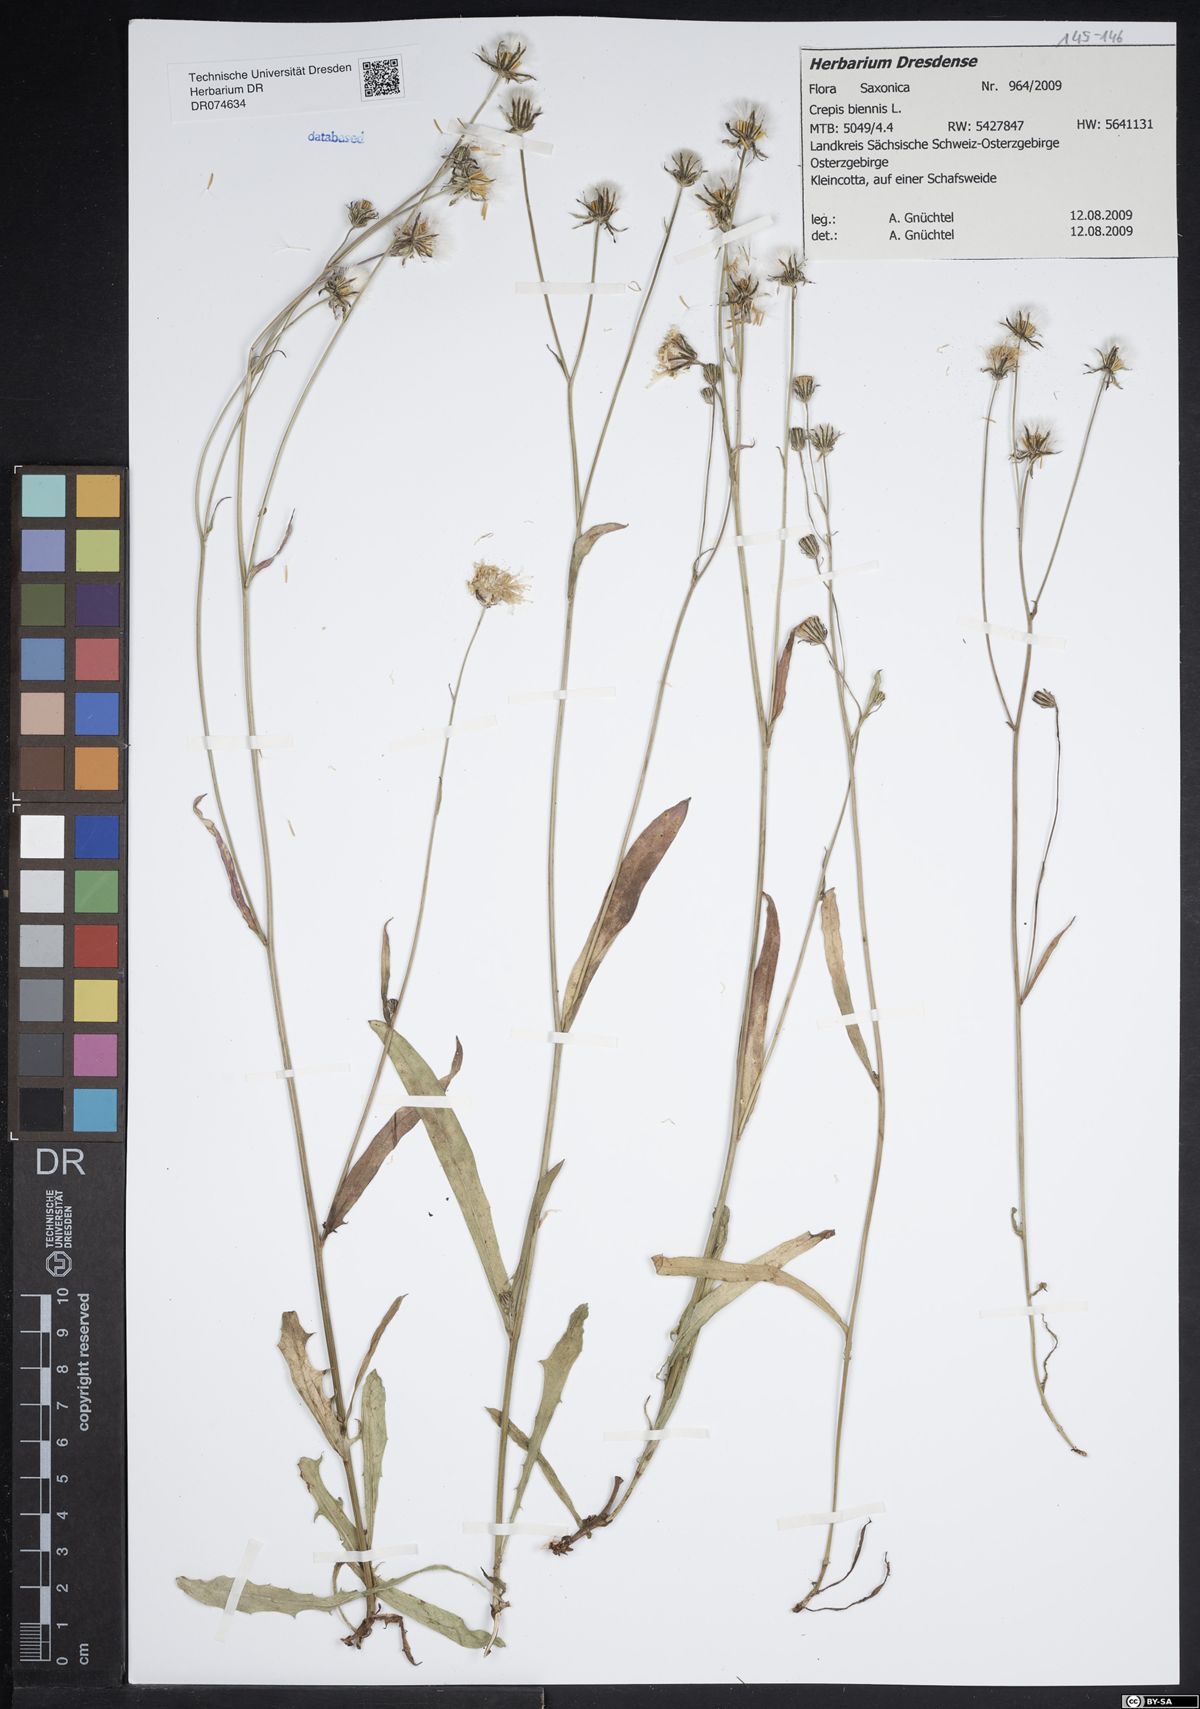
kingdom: Plantae
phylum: Tracheophyta
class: Magnoliopsida
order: Asterales
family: Asteraceae
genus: Crepis
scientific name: Crepis biennis
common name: Rough hawk's-beard
